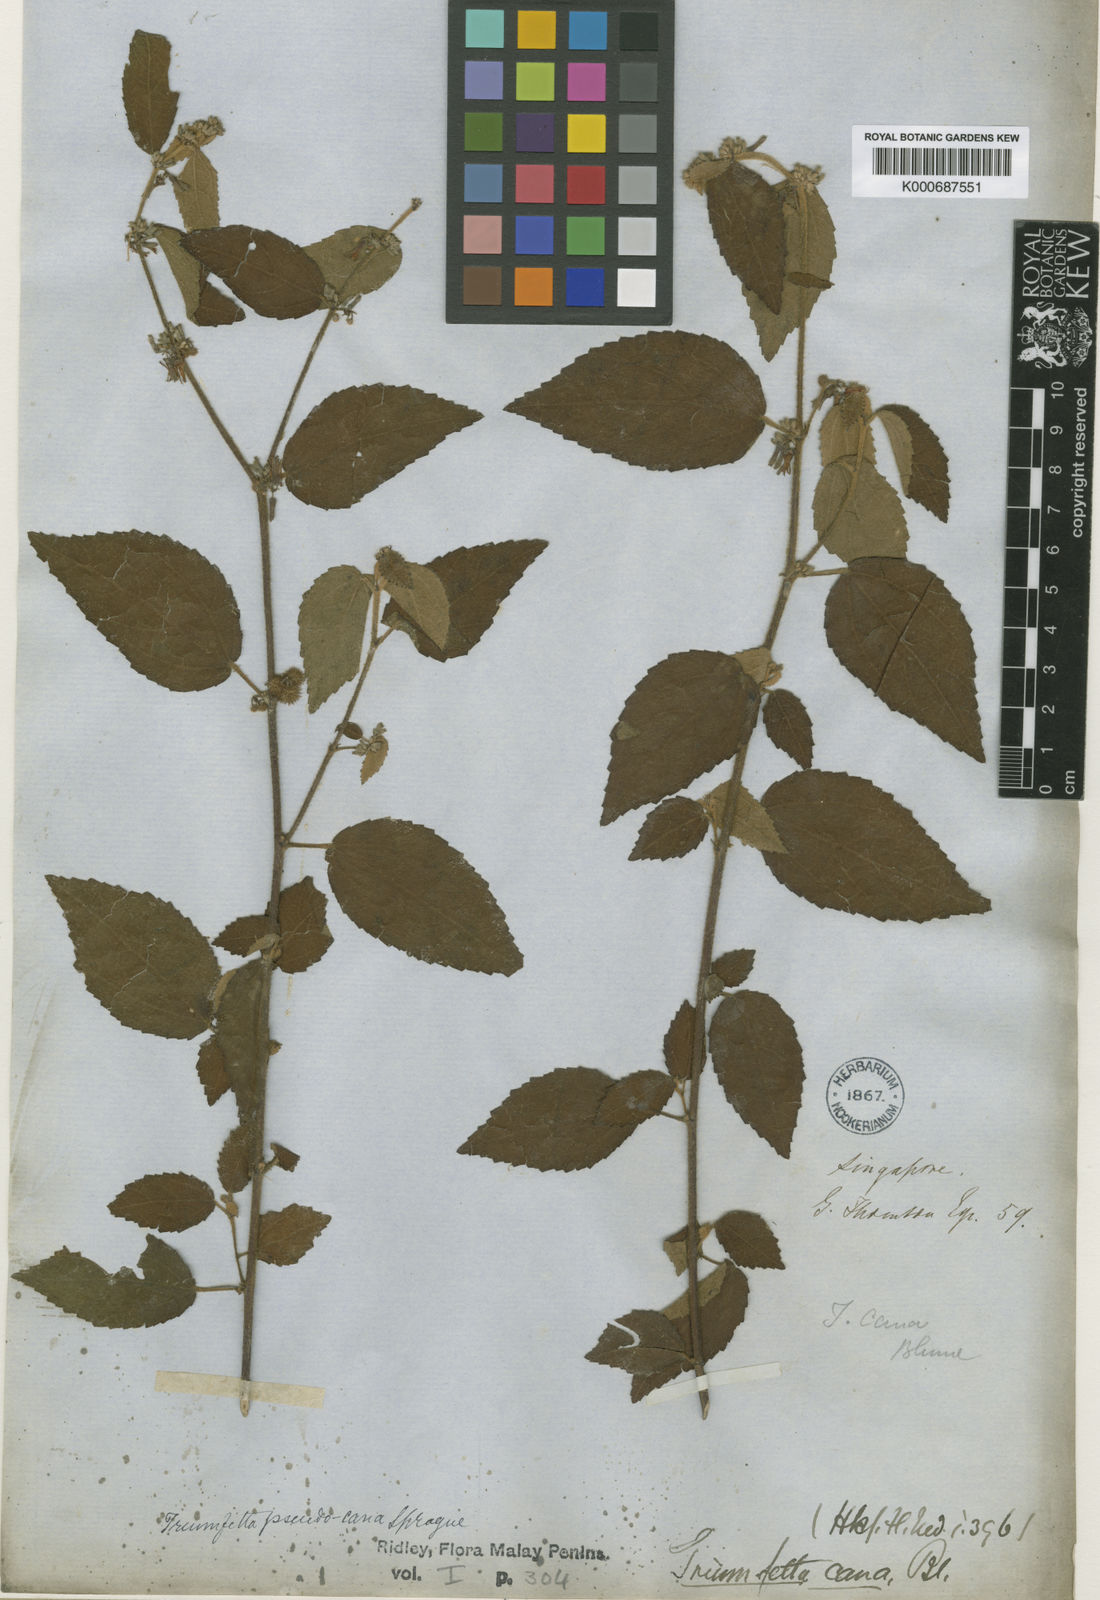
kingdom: Plantae
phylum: Tracheophyta
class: Magnoliopsida
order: Malvales
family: Malvaceae
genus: Triumfetta
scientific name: Triumfetta tomentosa
